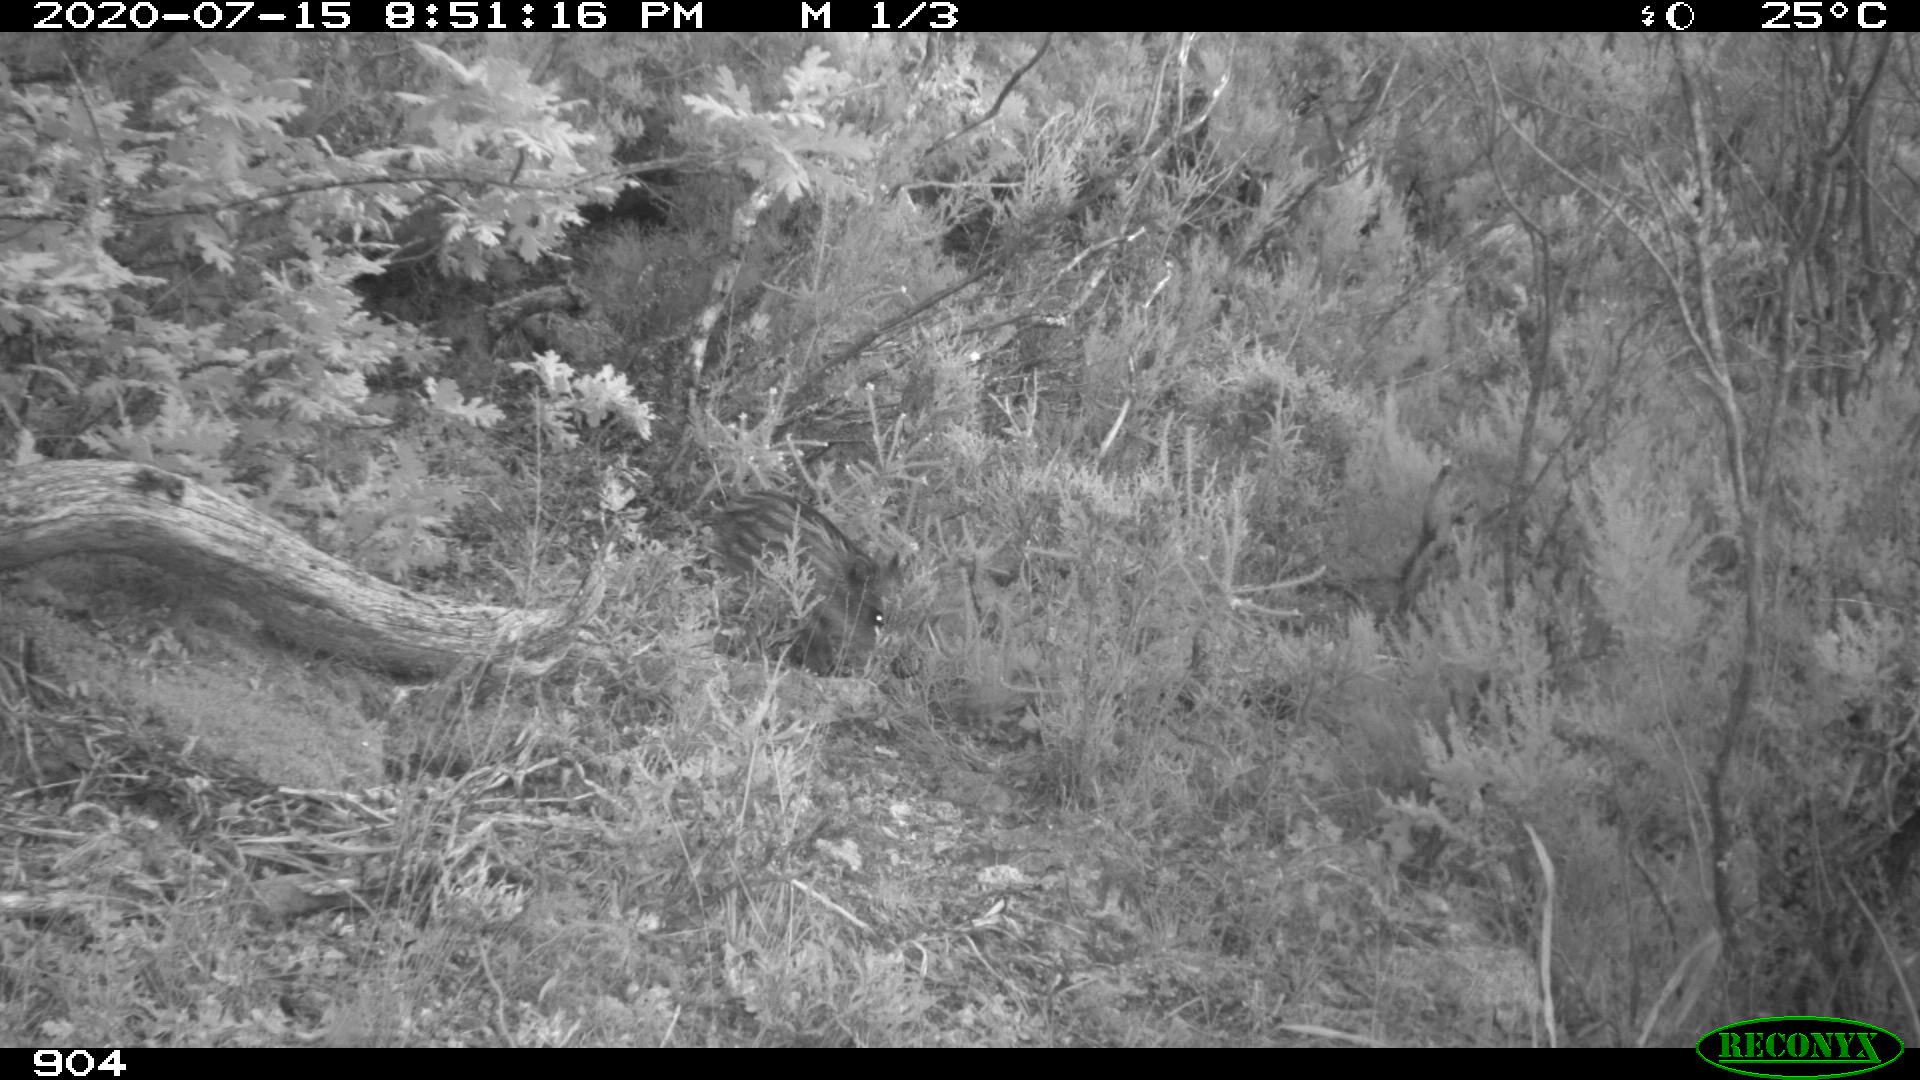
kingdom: Animalia
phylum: Chordata
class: Mammalia
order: Artiodactyla
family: Suidae
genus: Sus
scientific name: Sus scrofa
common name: Wild boar
